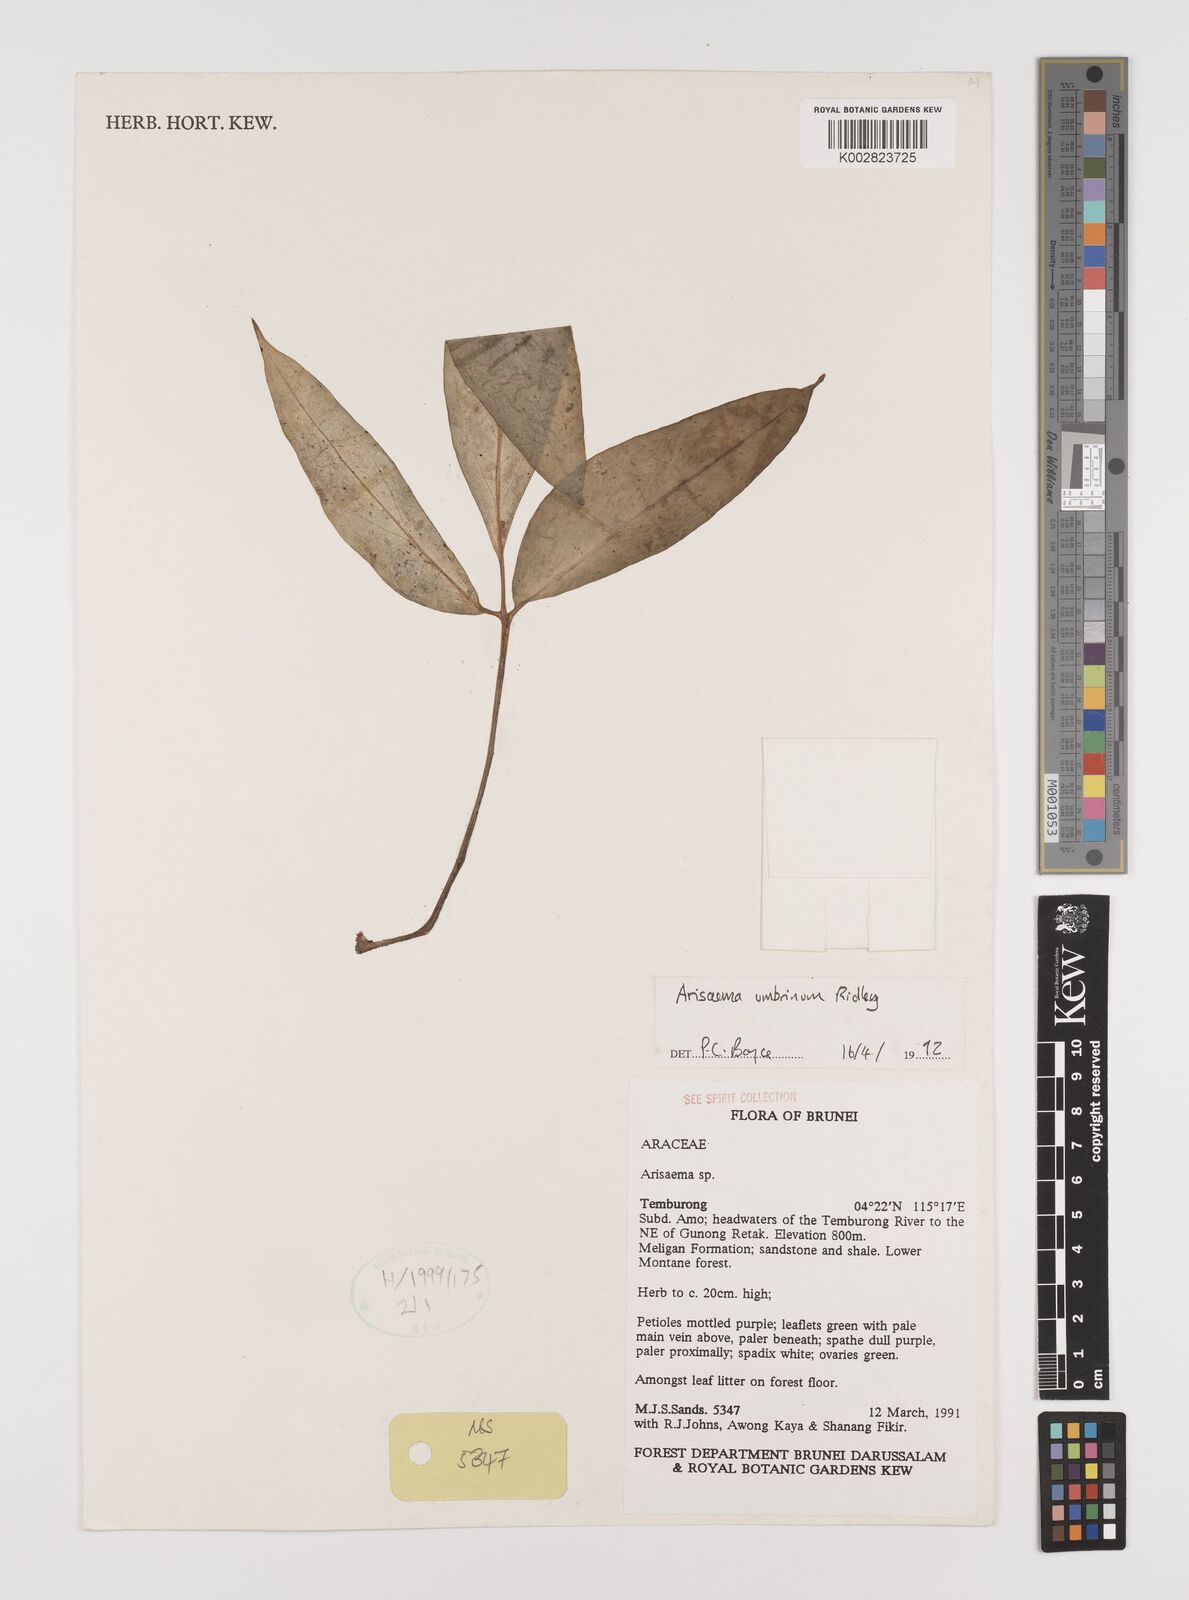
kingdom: Plantae
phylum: Tracheophyta
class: Liliopsida
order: Alismatales
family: Araceae
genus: Arisaema
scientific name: Arisaema umbrinum
